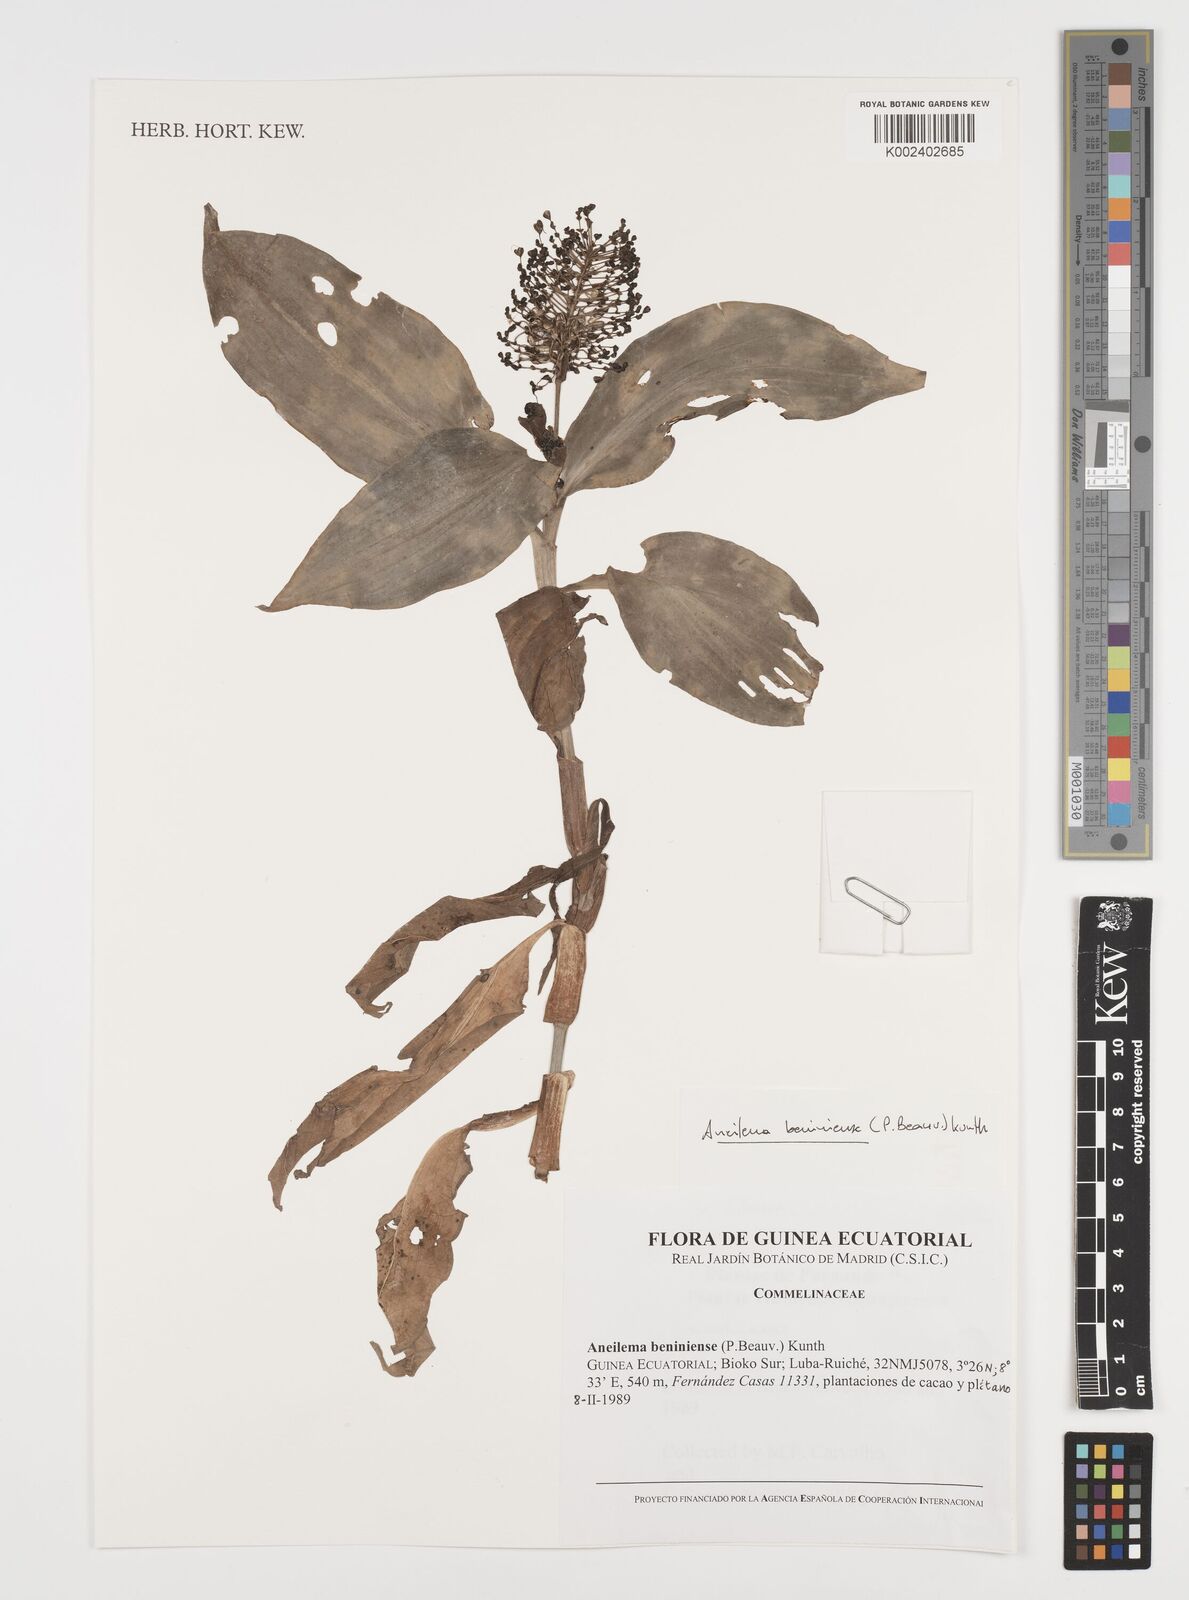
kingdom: Plantae
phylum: Tracheophyta
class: Liliopsida
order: Commelinales
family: Commelinaceae
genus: Aneilema
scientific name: Aneilema beniniense
